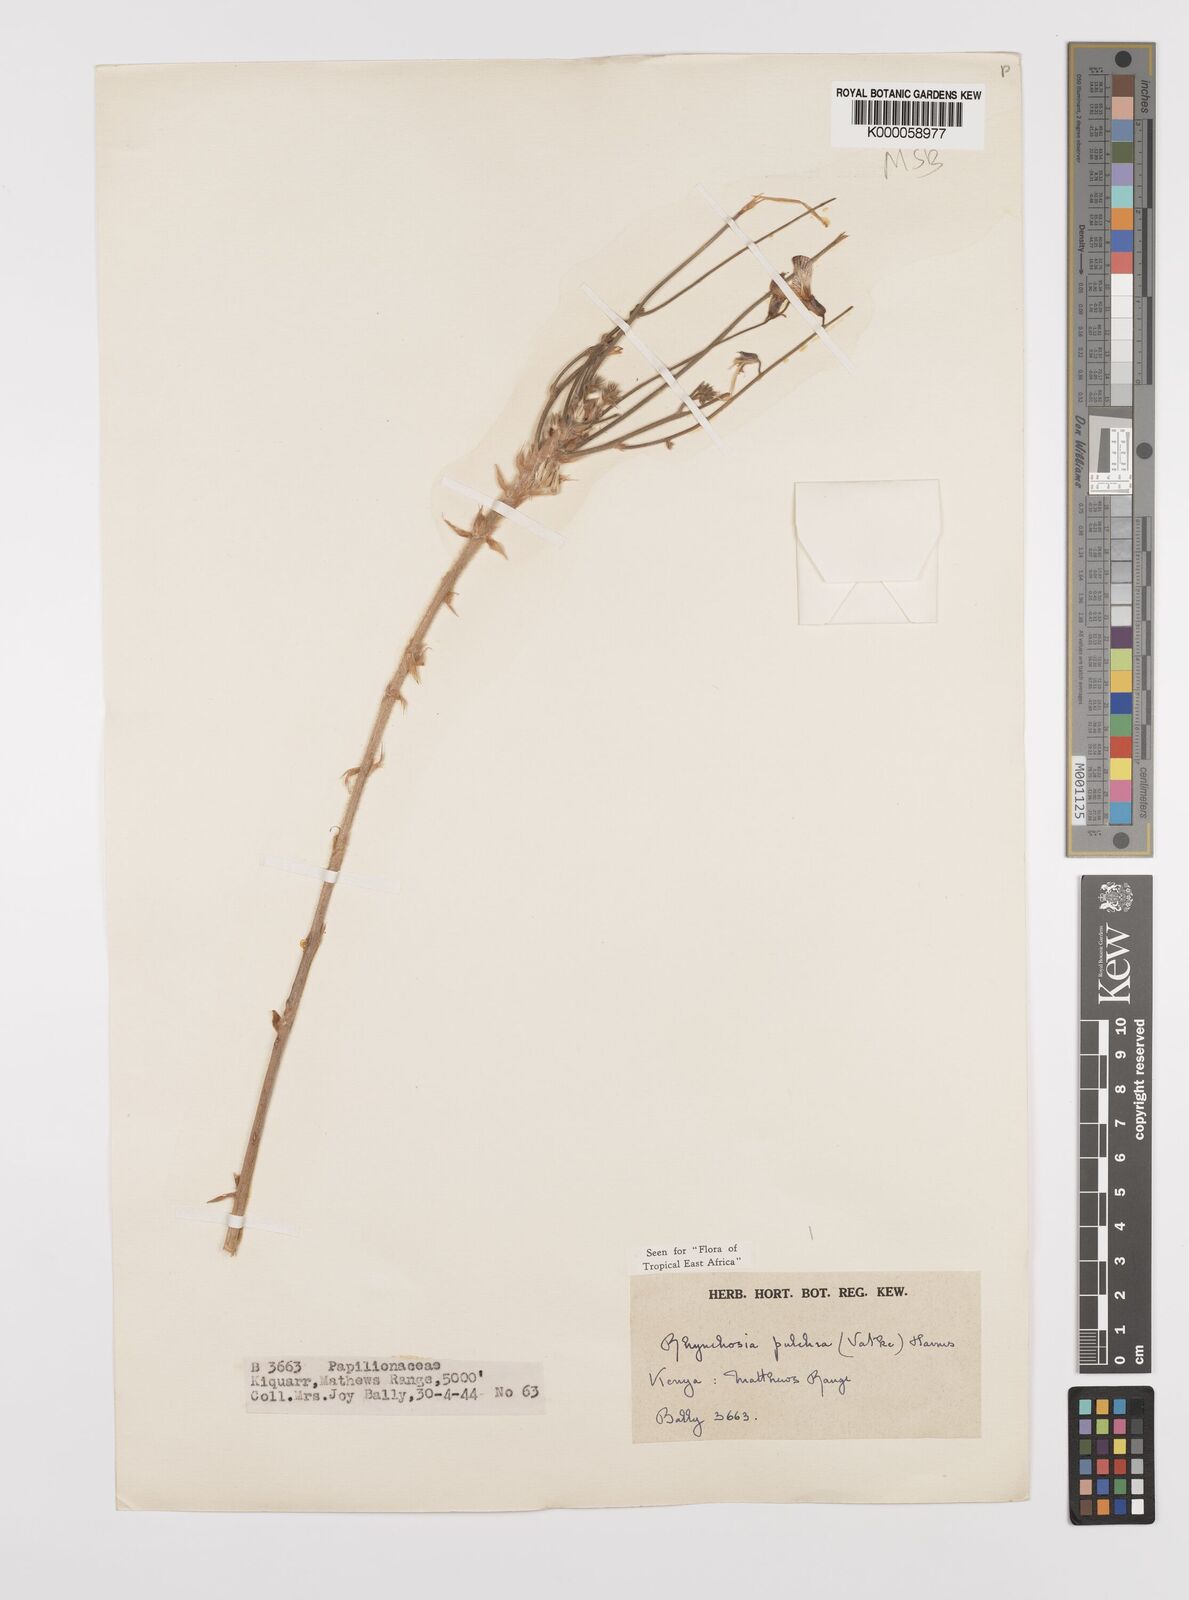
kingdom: Plantae
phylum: Tracheophyta
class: Magnoliopsida
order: Fabales
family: Fabaceae
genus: Rhynchosia
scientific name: Rhynchosia pulchra
